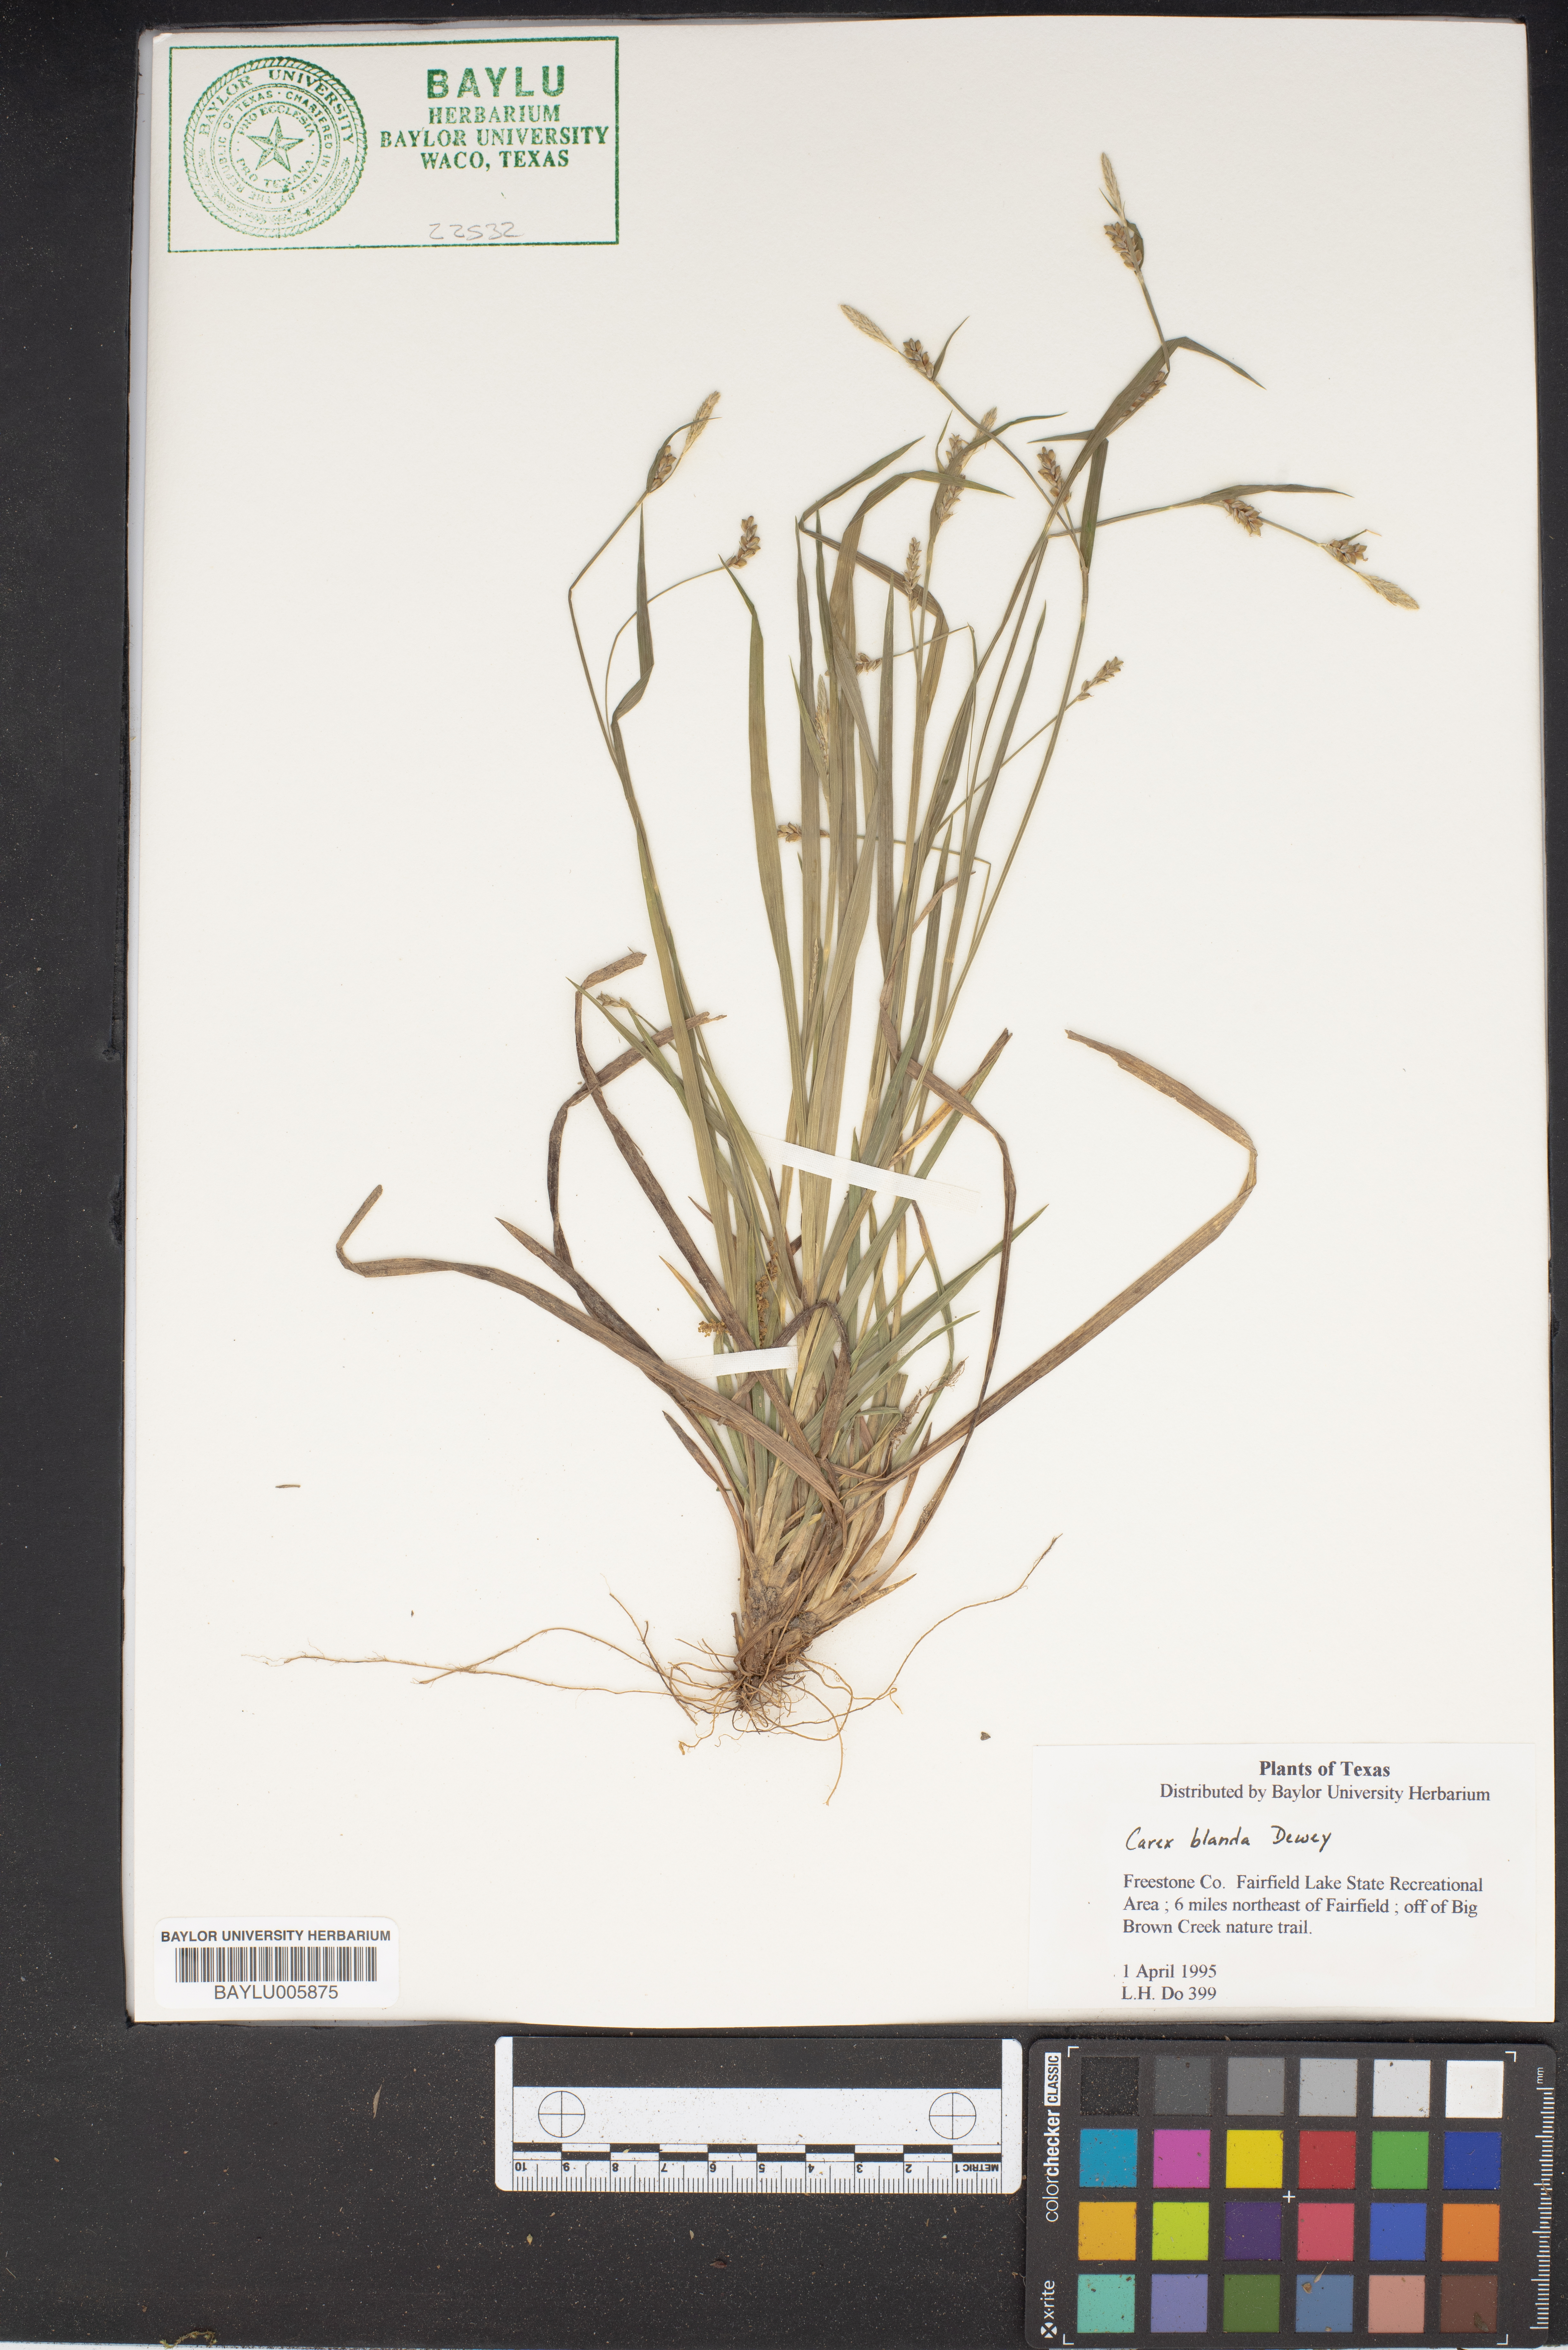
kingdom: Plantae
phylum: Tracheophyta
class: Liliopsida
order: Poales
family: Cyperaceae
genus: Carex
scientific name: Carex blanda
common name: Bland sedge
